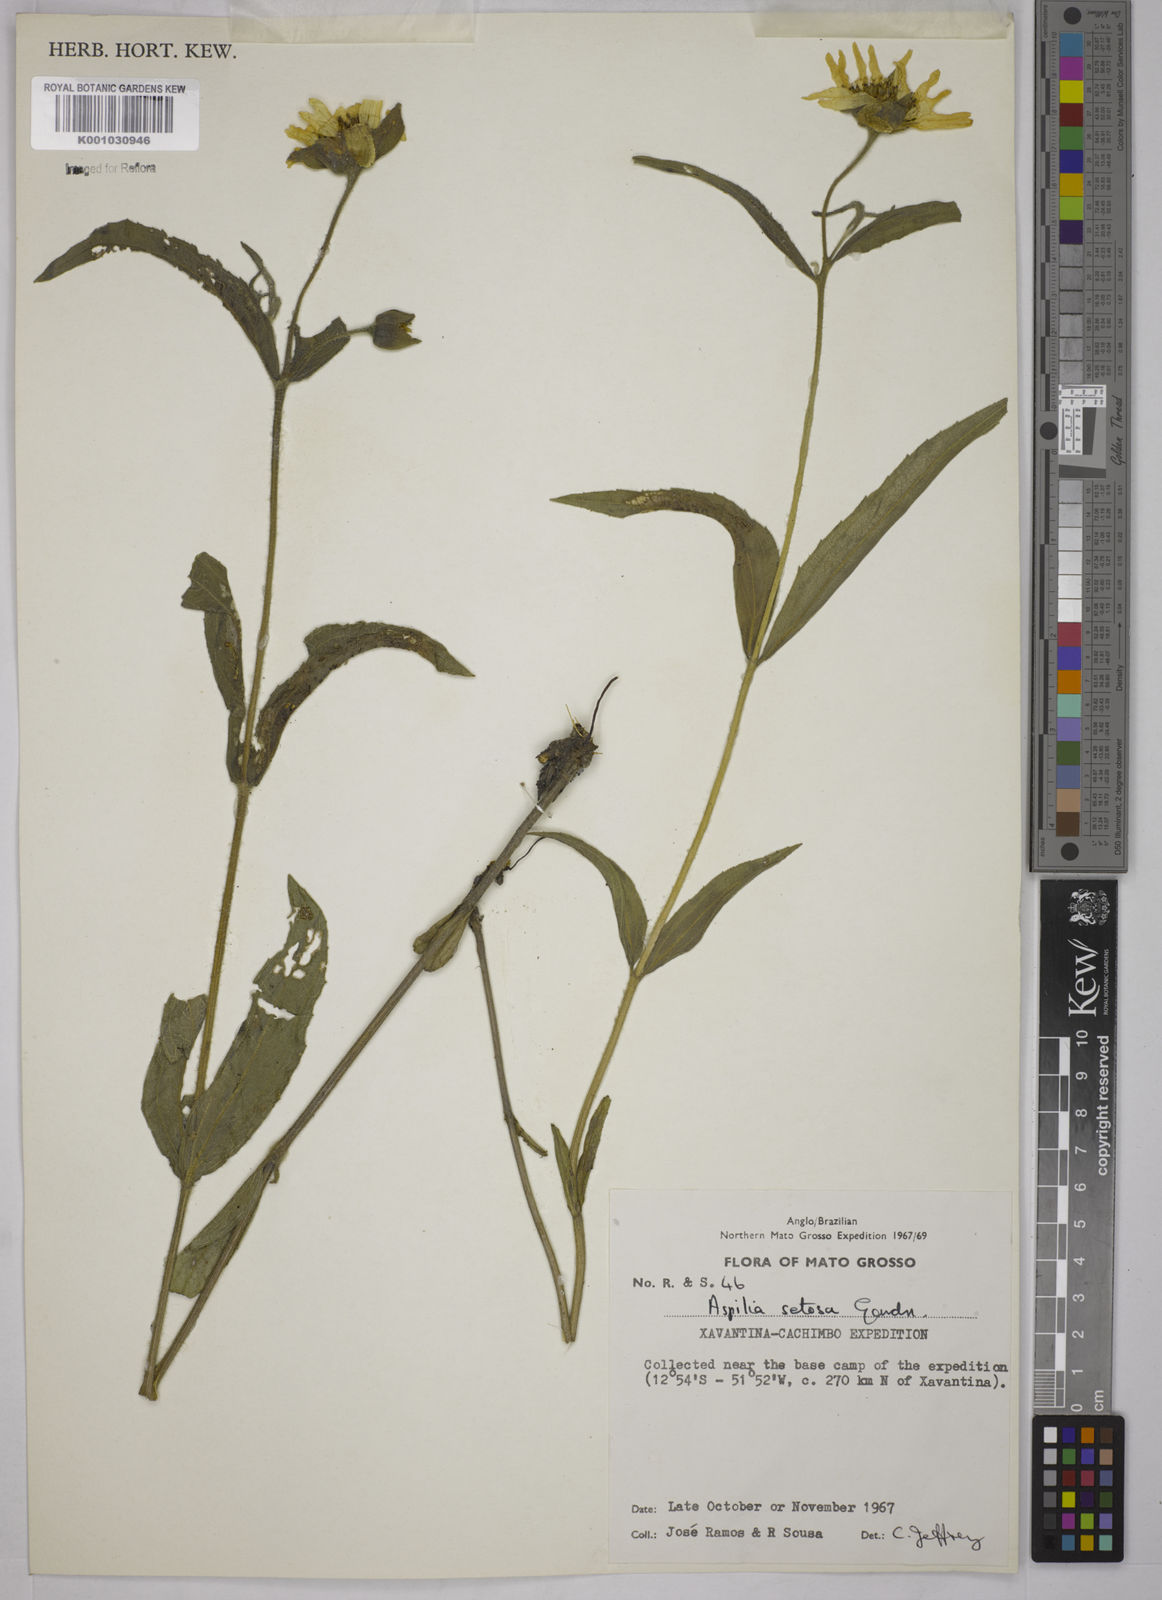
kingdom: Plantae
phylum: Tracheophyta
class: Magnoliopsida
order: Asterales
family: Asteraceae
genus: Aspilia
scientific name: Aspilia
